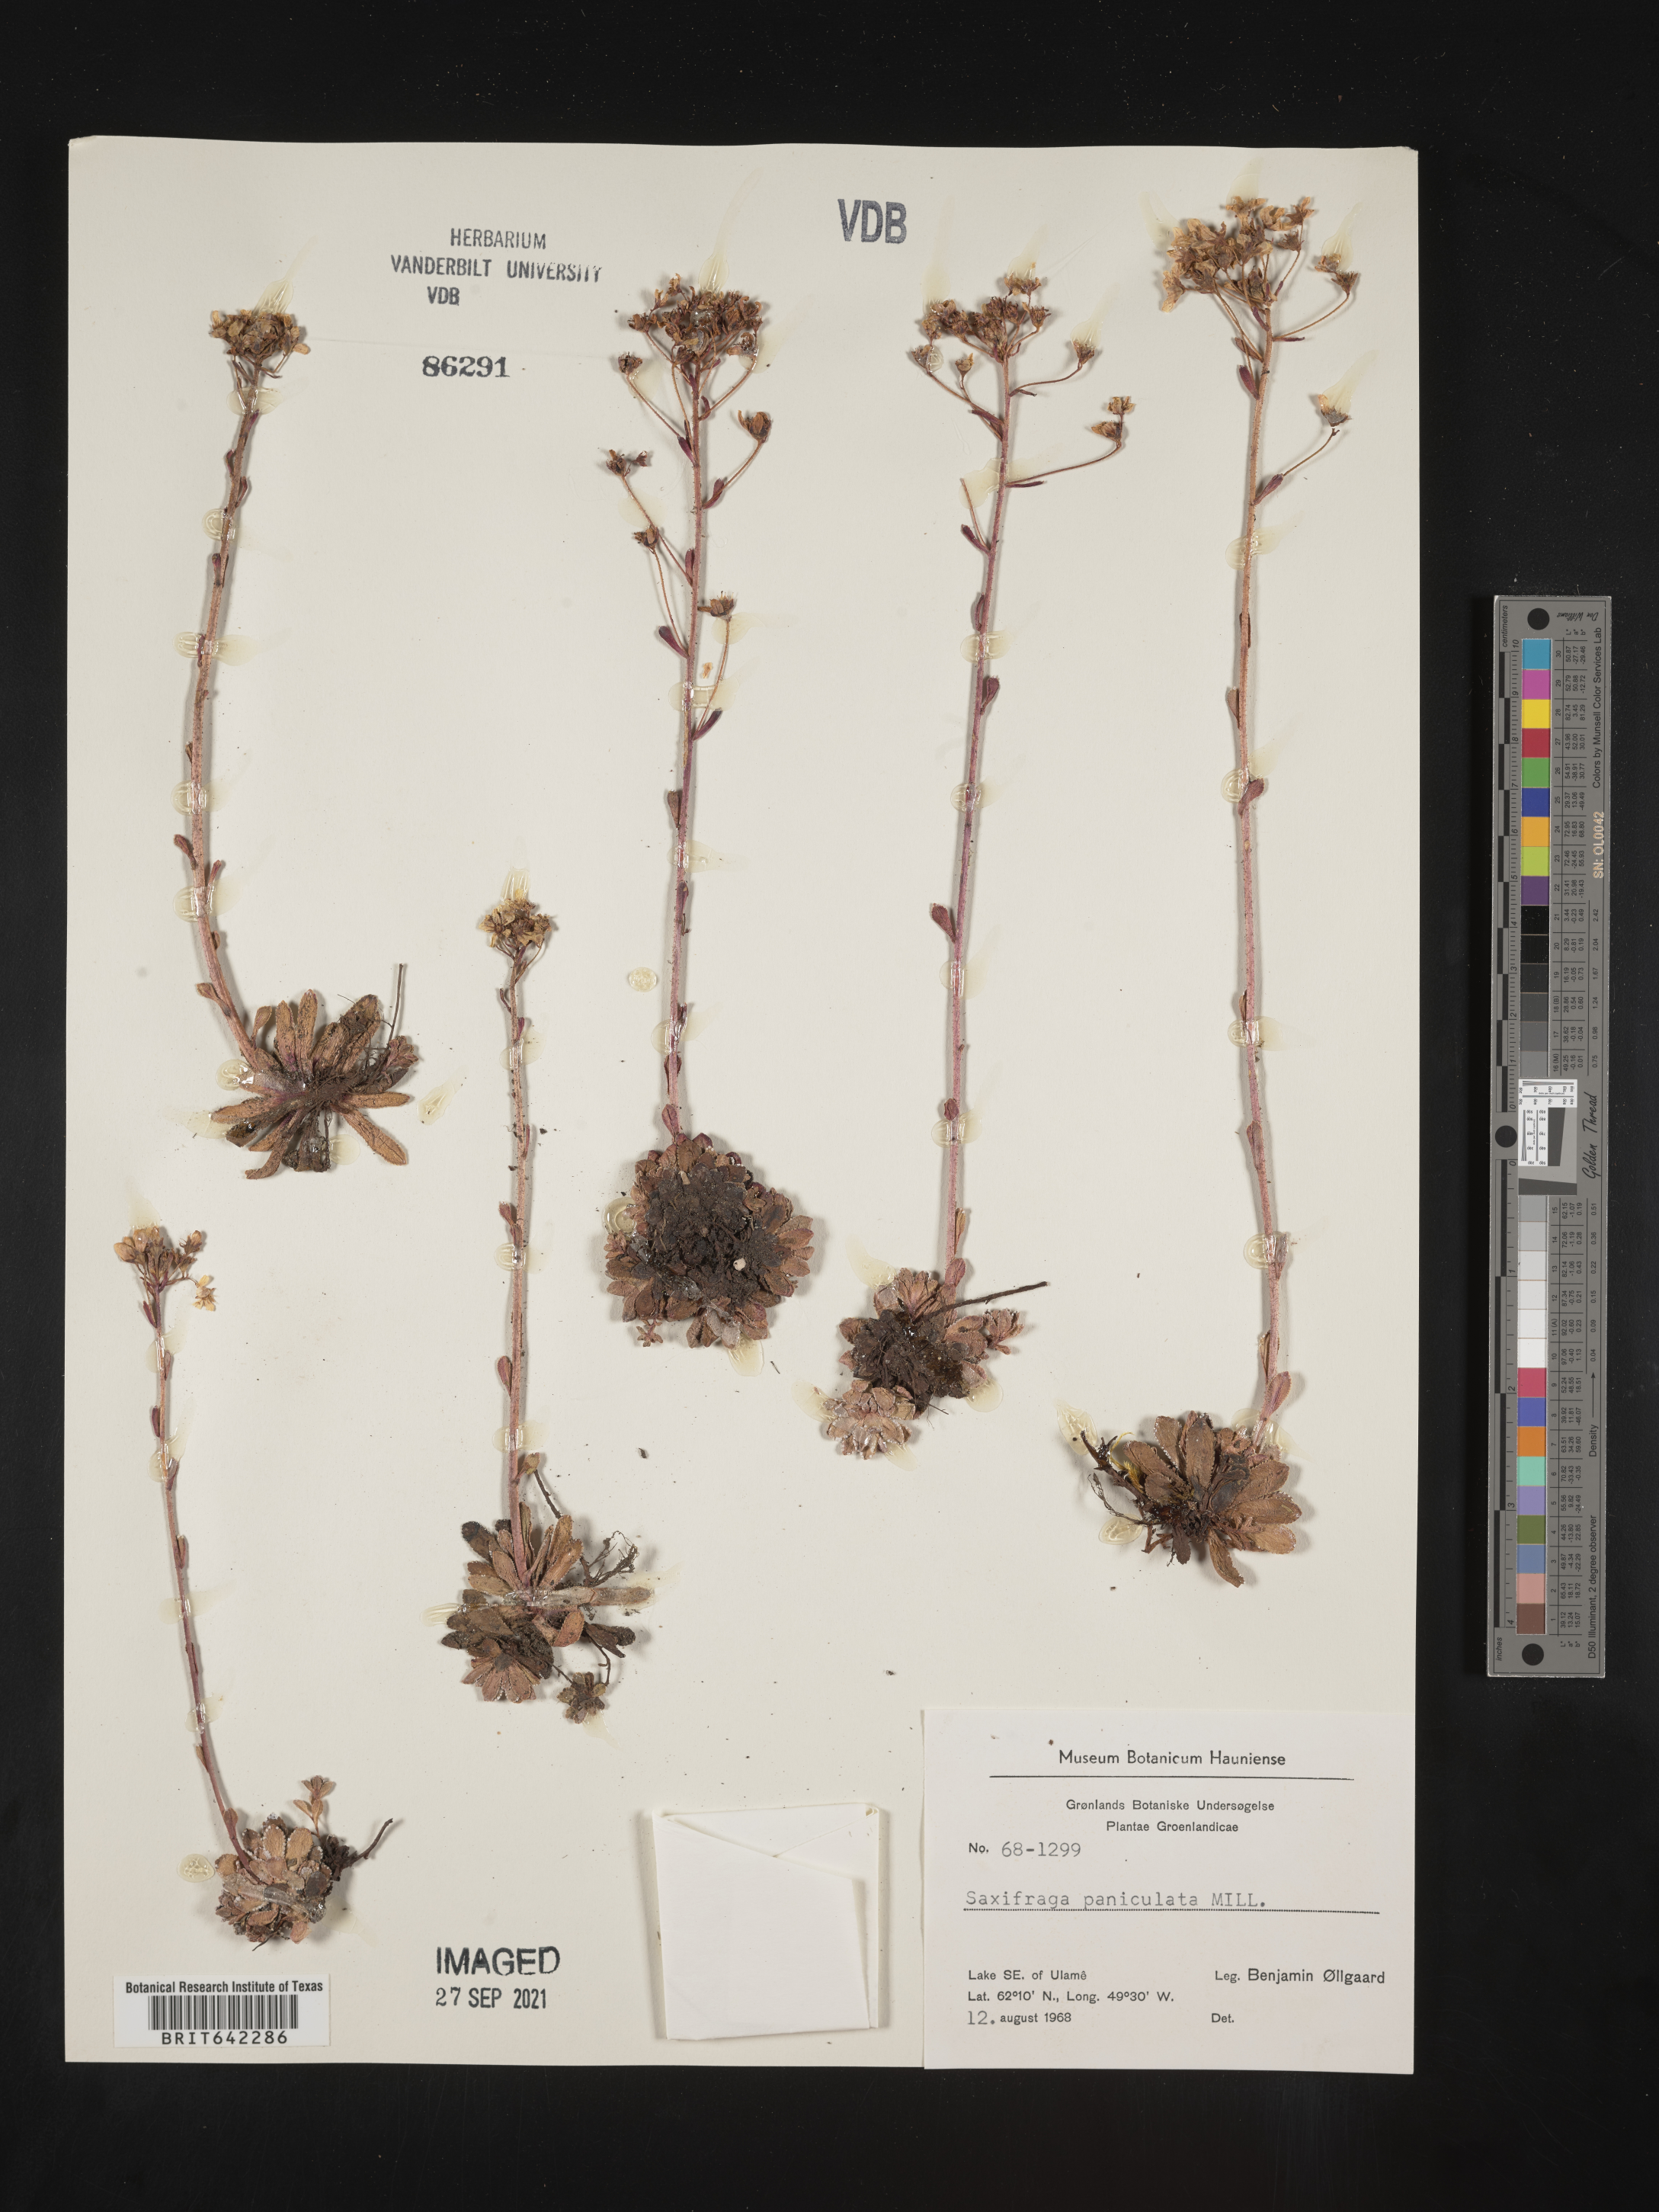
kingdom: Plantae
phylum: Tracheophyta
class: Magnoliopsida
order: Saxifragales
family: Saxifragaceae
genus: Saxifraga
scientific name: Saxifraga
